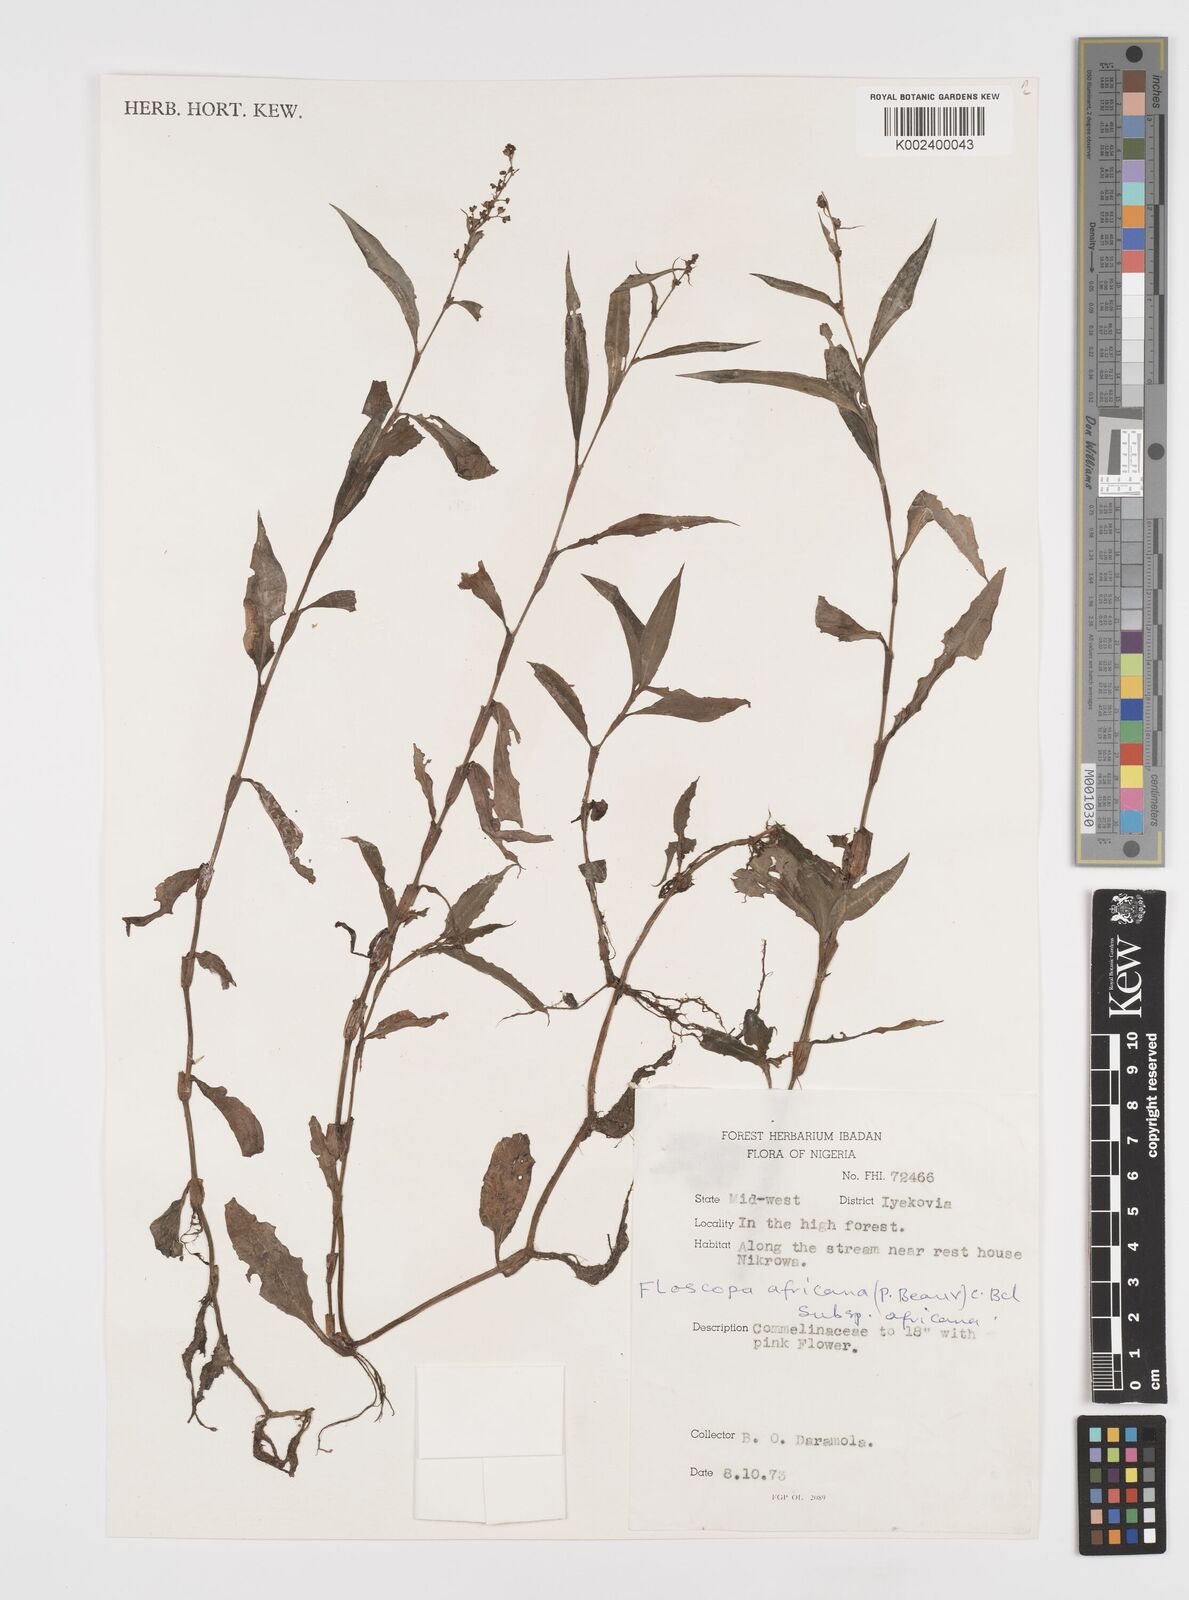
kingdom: Plantae
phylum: Tracheophyta
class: Liliopsida
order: Commelinales
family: Commelinaceae
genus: Floscopa
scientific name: Floscopa africana
